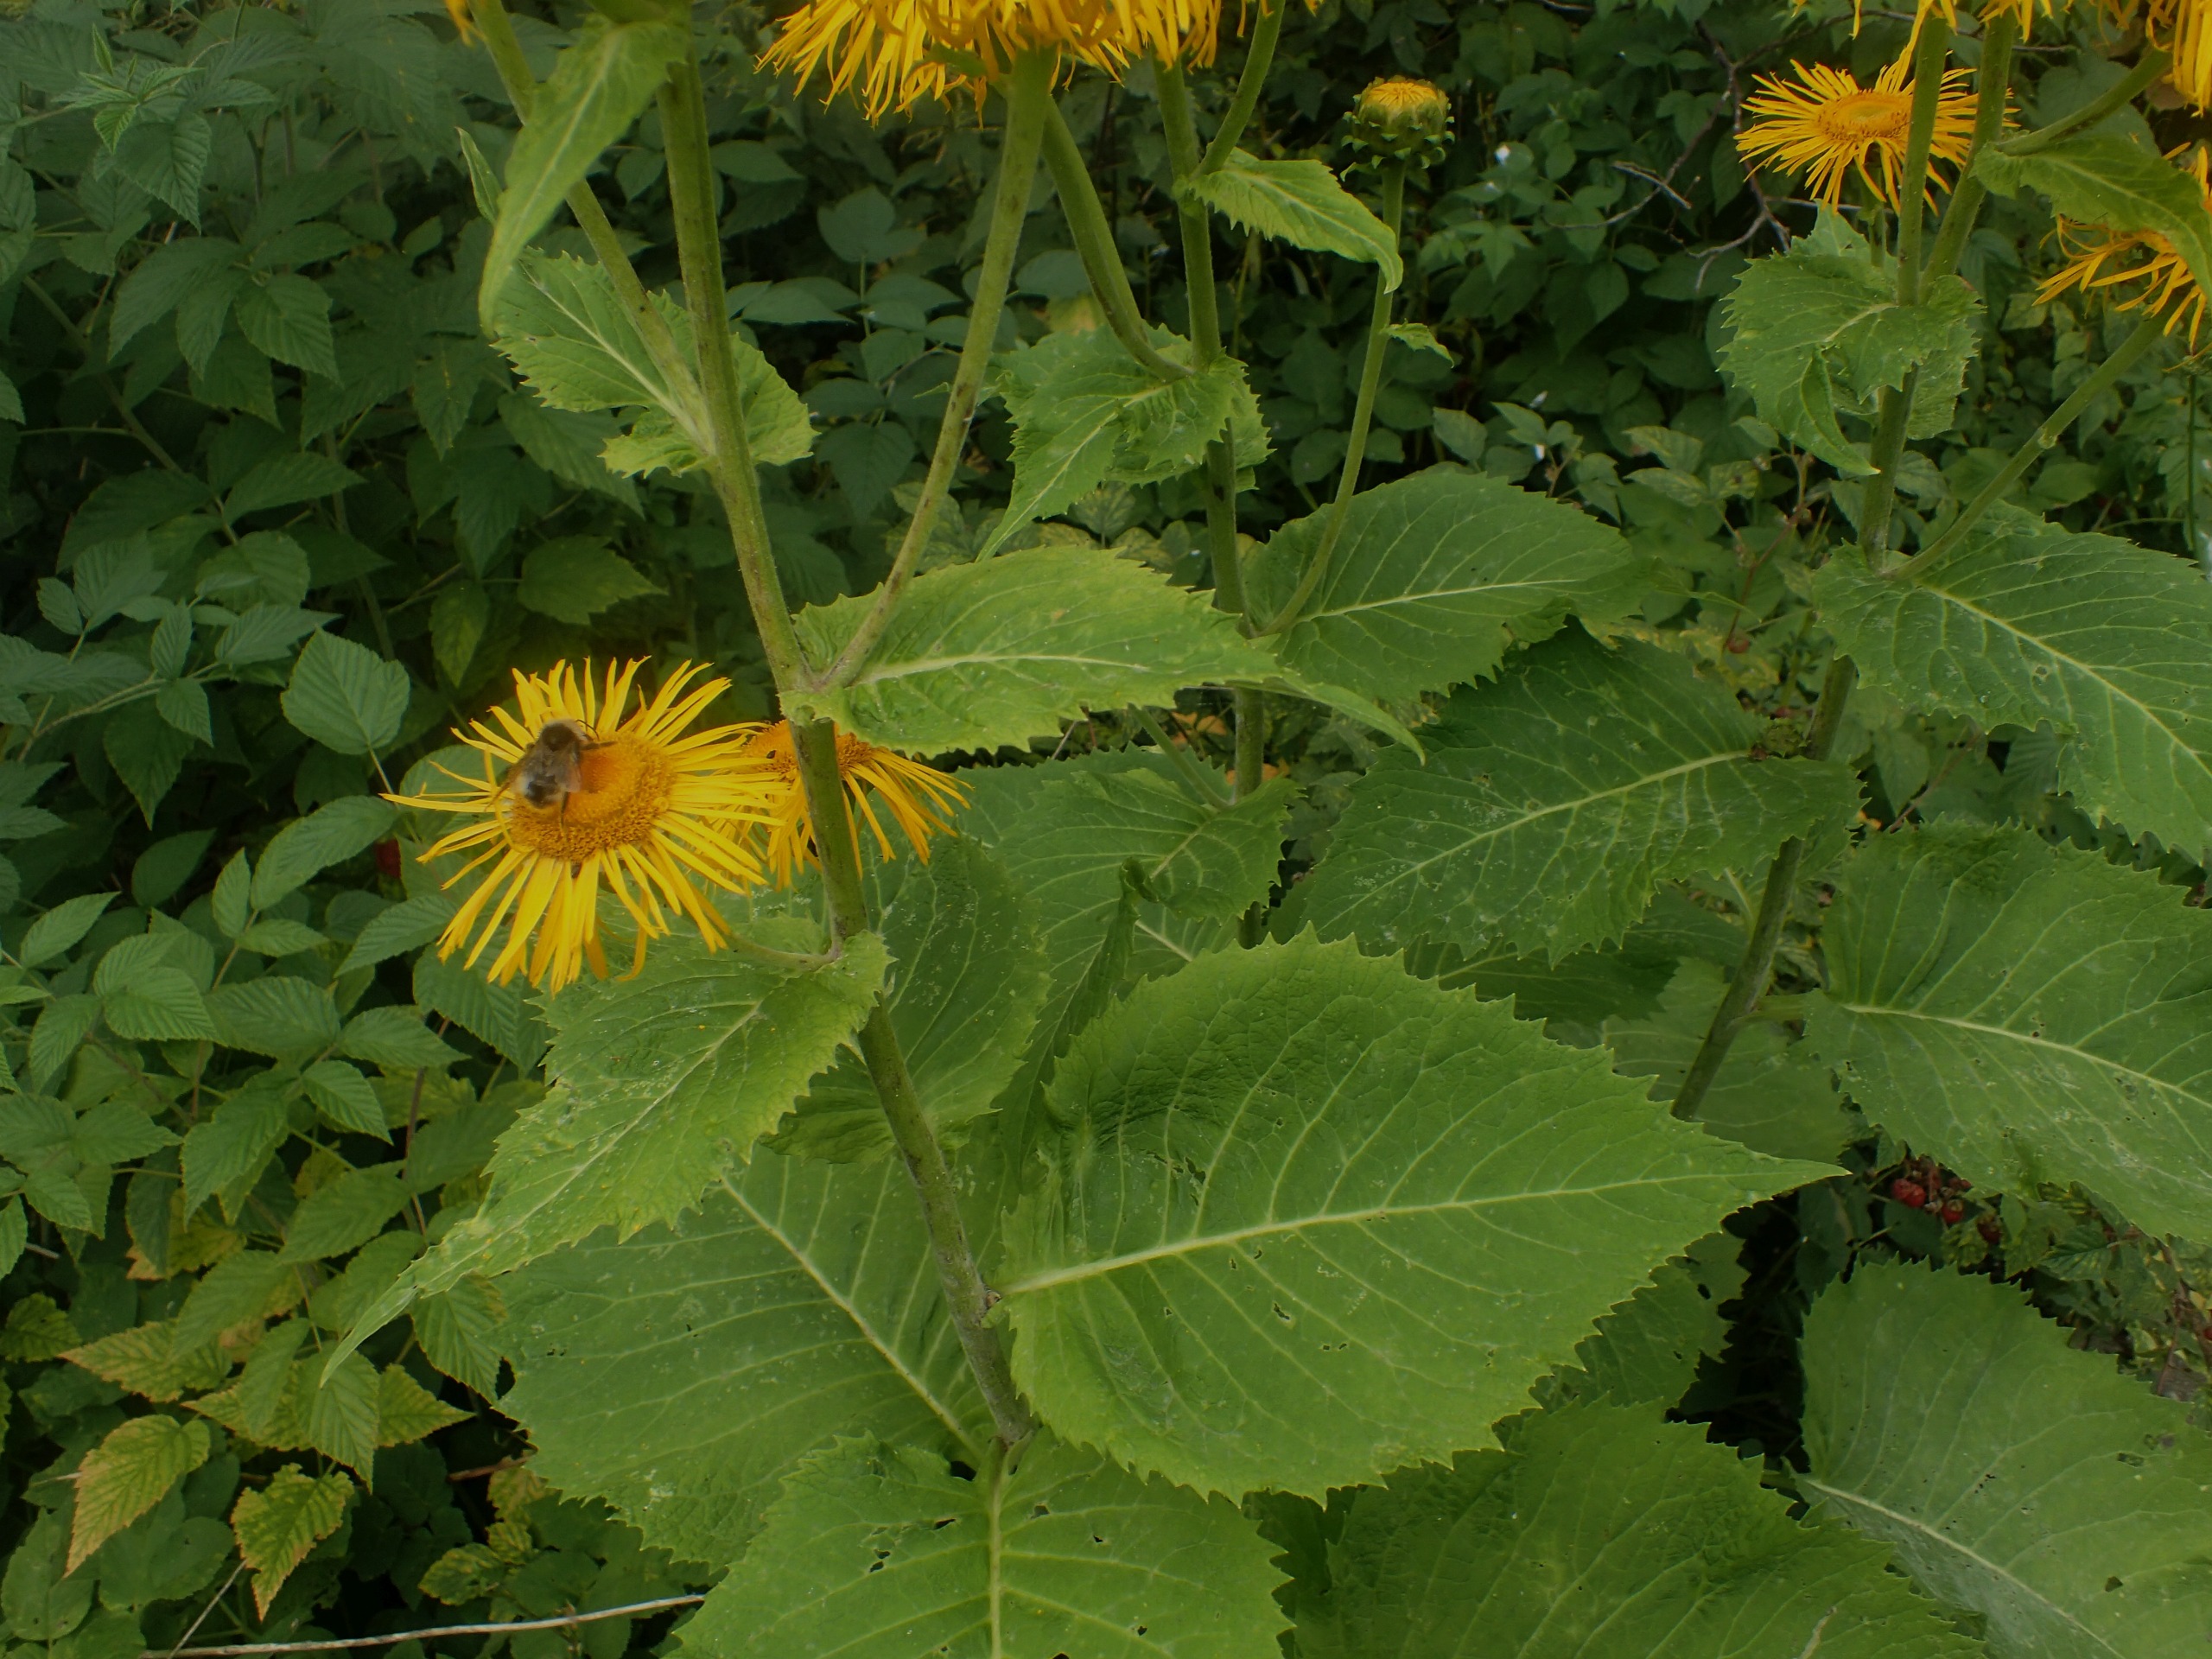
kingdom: Plantae
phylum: Tracheophyta
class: Magnoliopsida
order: Asterales
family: Asteraceae
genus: Telekia
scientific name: Telekia speciosa
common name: Tusindstråle
